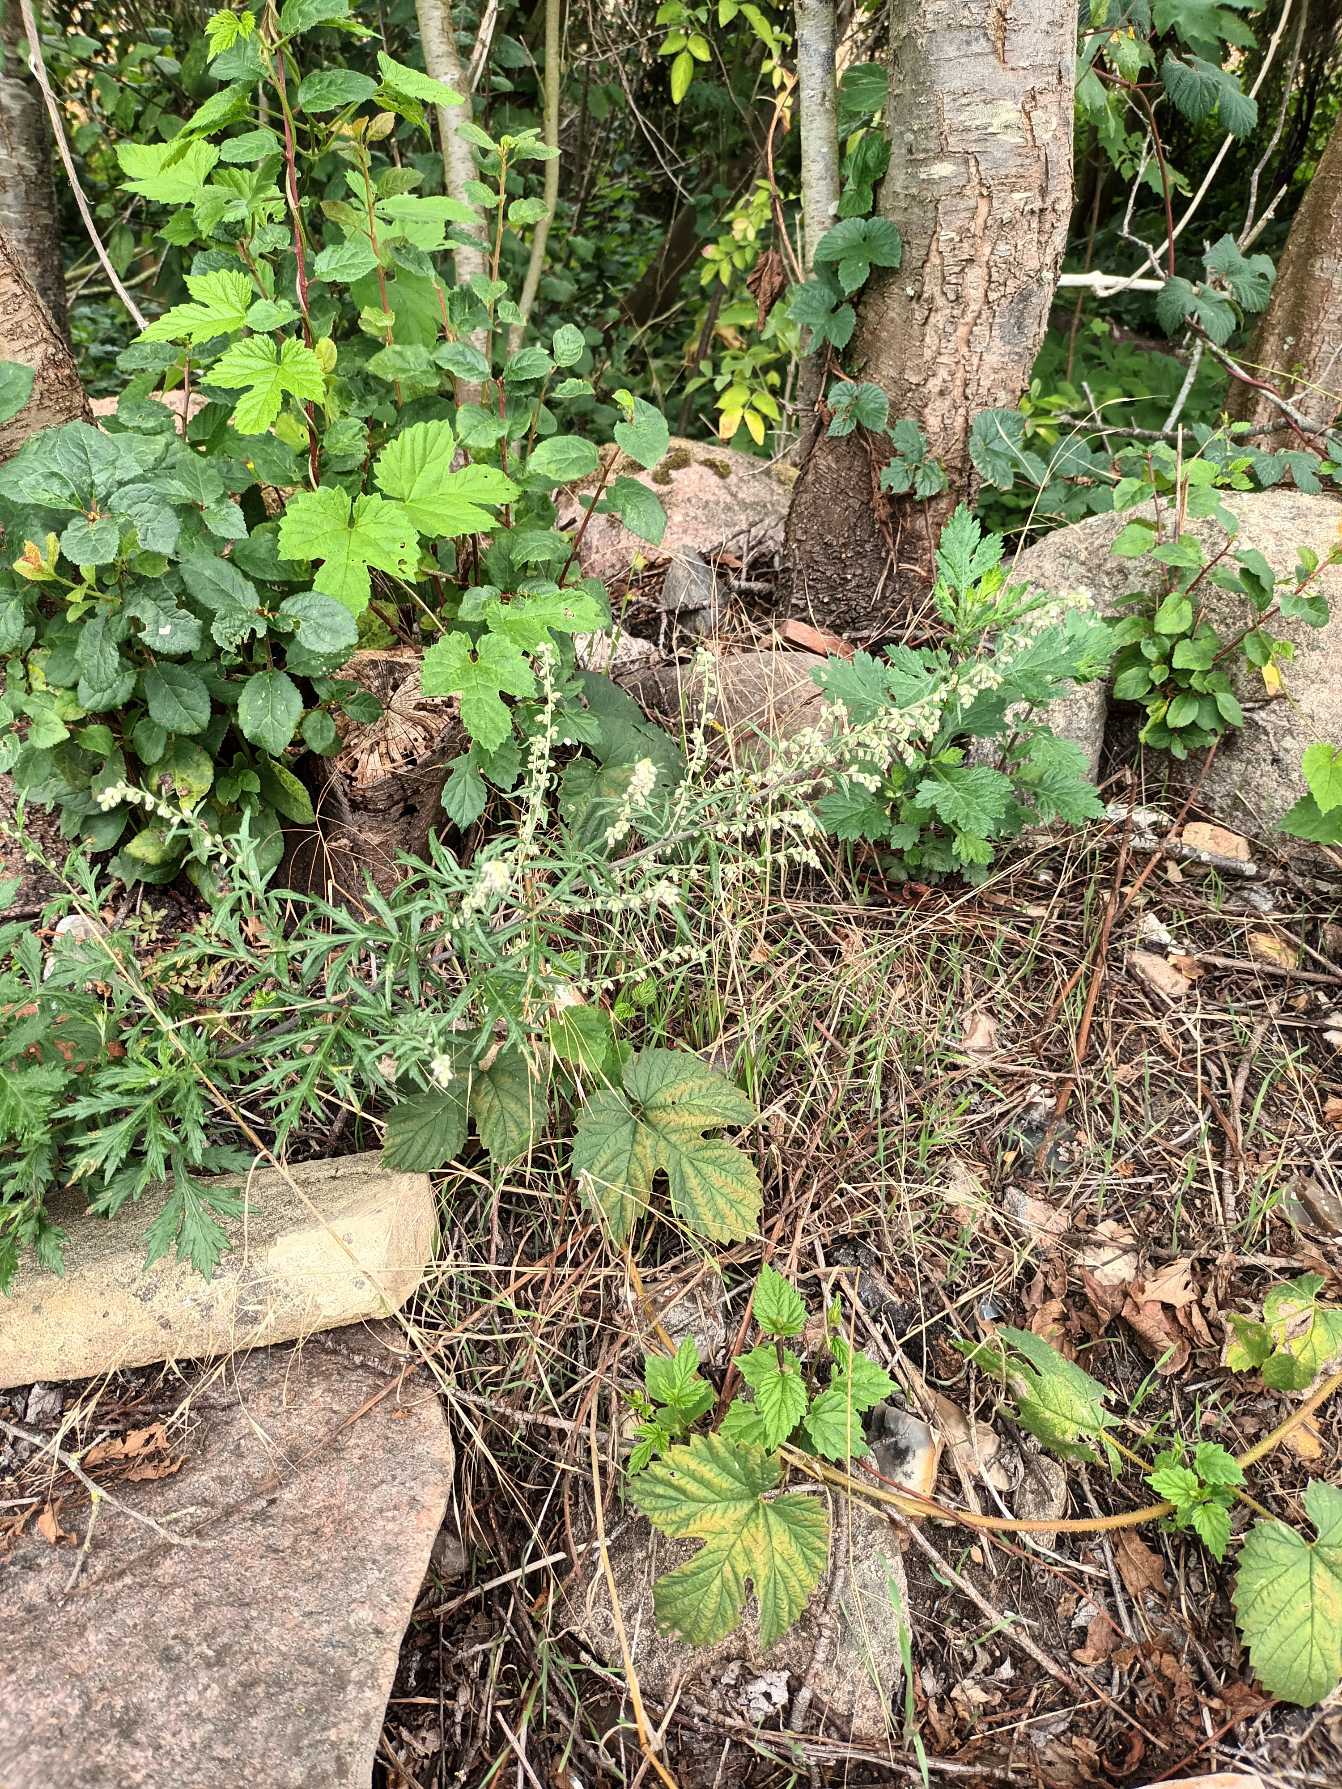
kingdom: Plantae
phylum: Tracheophyta
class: Magnoliopsida
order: Asterales
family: Asteraceae
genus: Artemisia
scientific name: Artemisia vulgaris
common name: Grå-bynke
